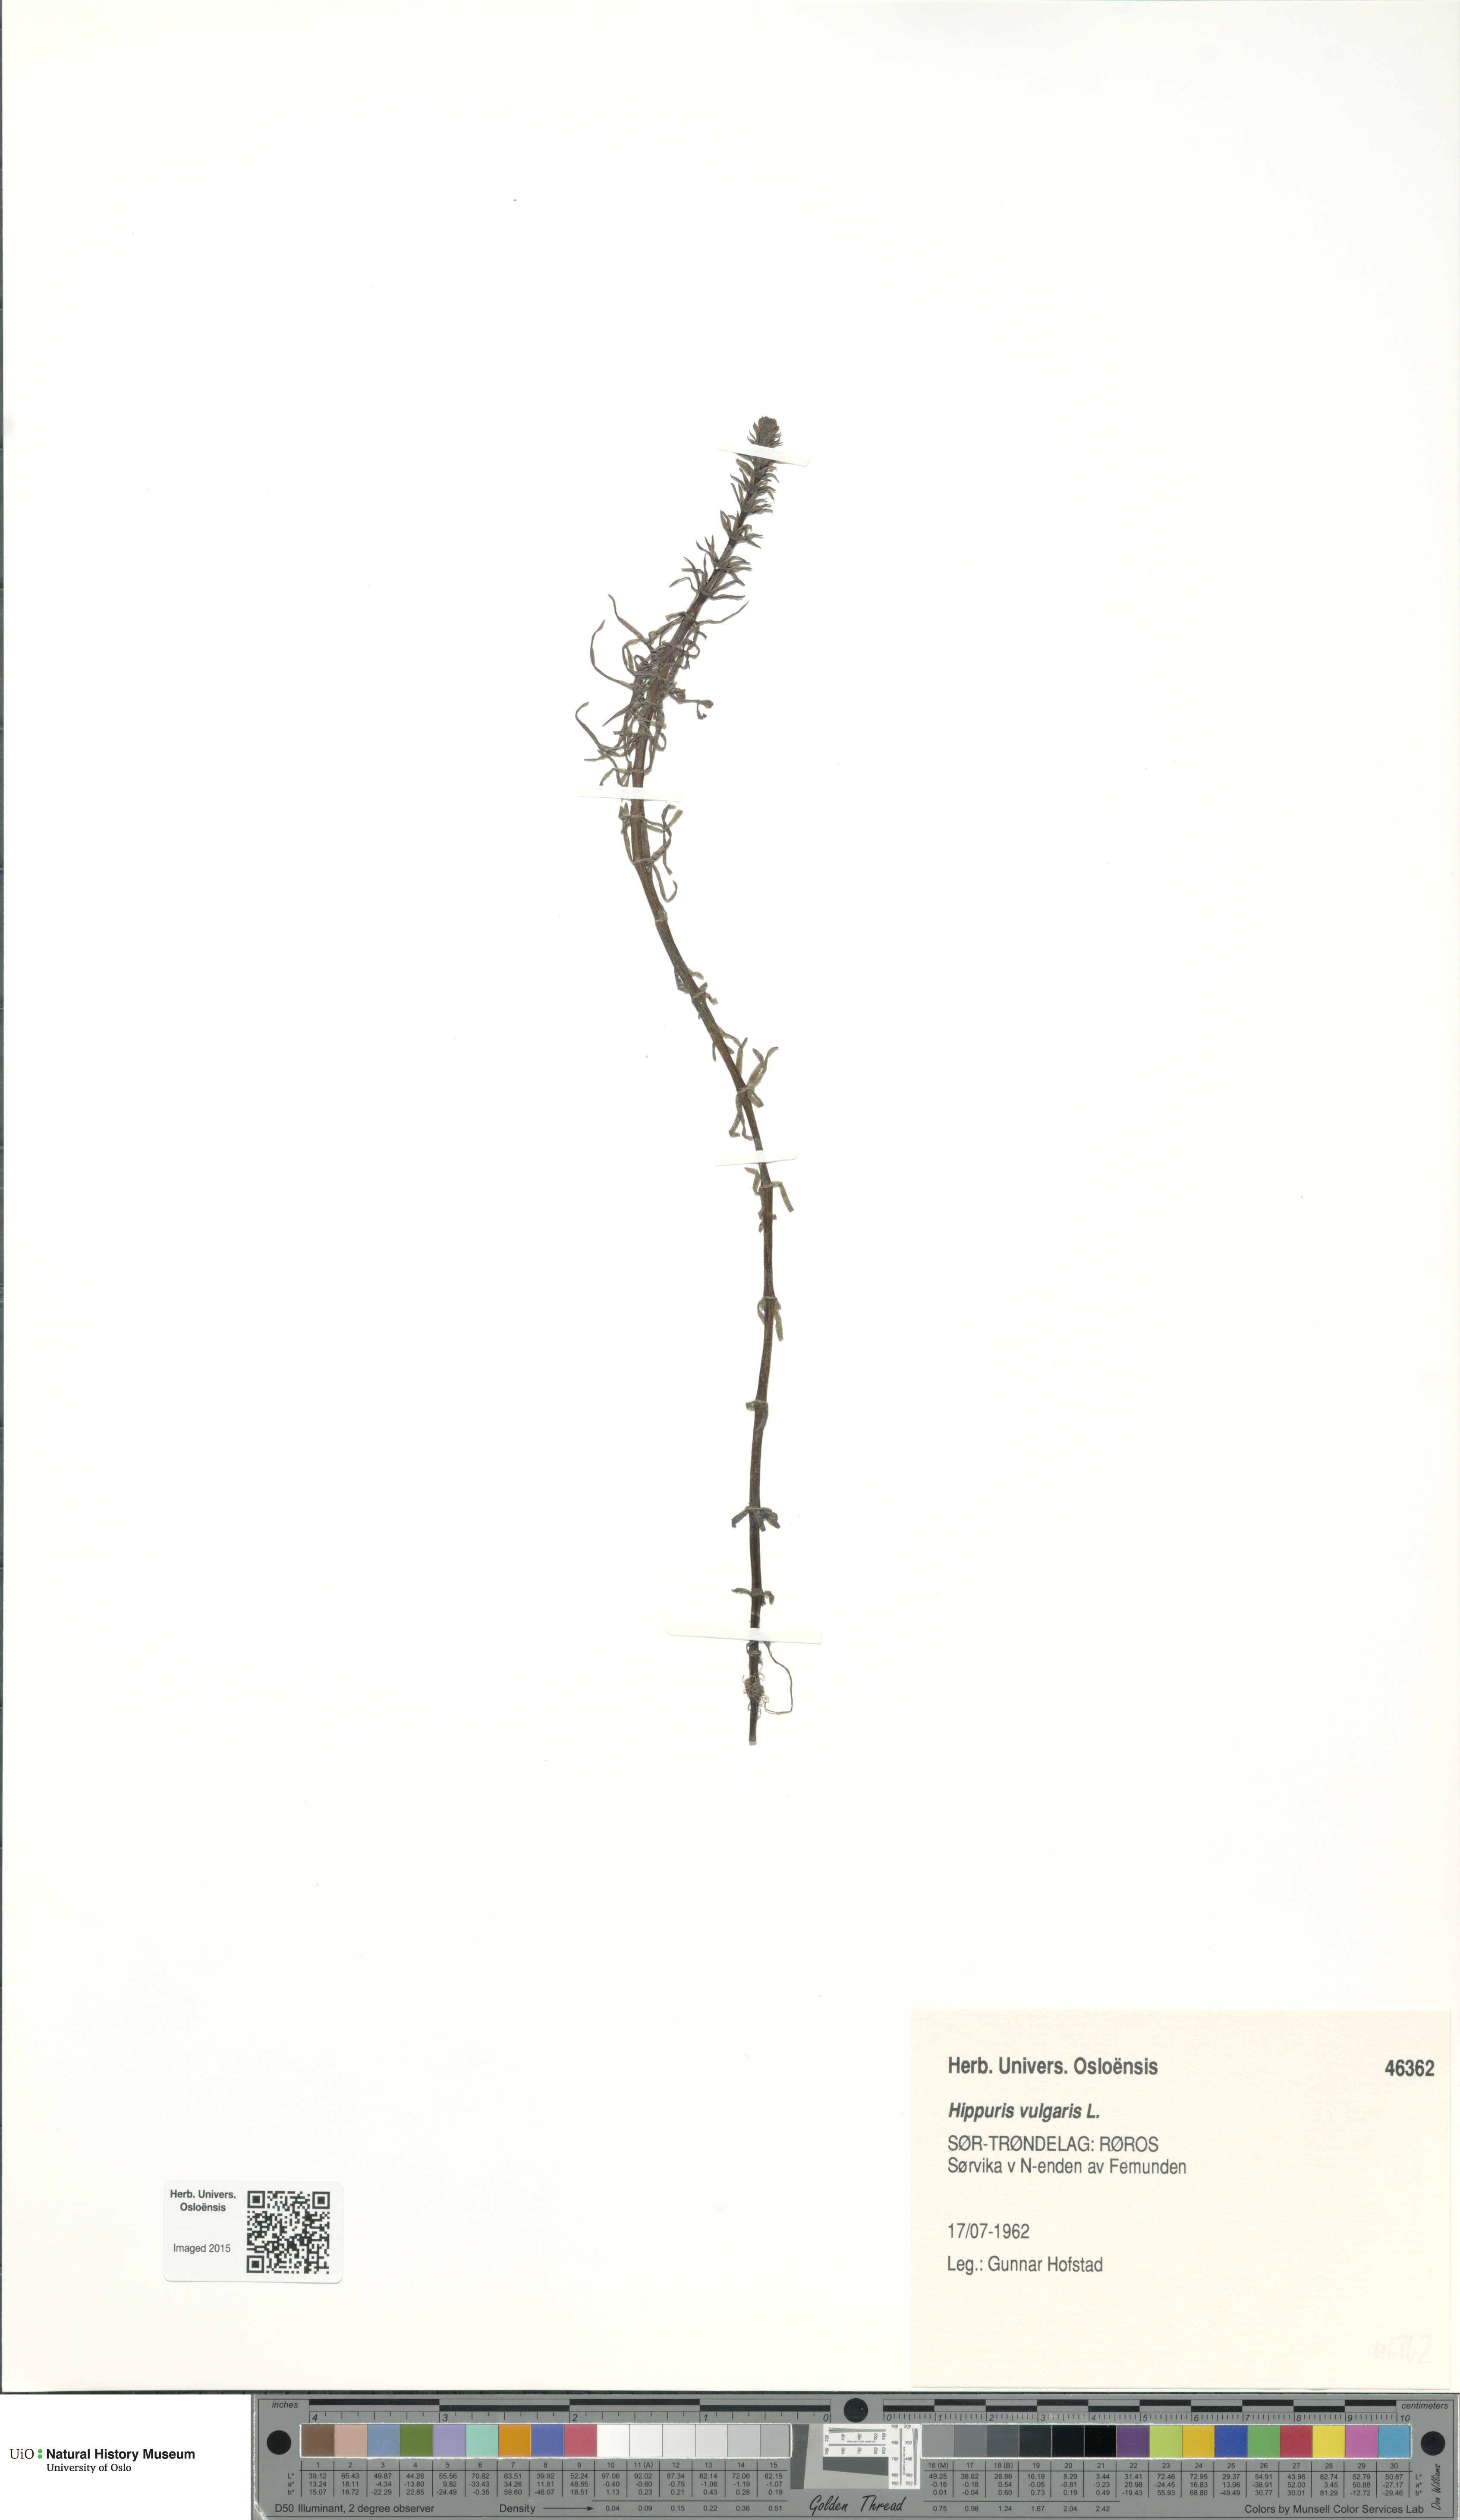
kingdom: Plantae
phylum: Tracheophyta
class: Magnoliopsida
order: Lamiales
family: Plantaginaceae
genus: Hippuris
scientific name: Hippuris vulgaris
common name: Mare's-tail
